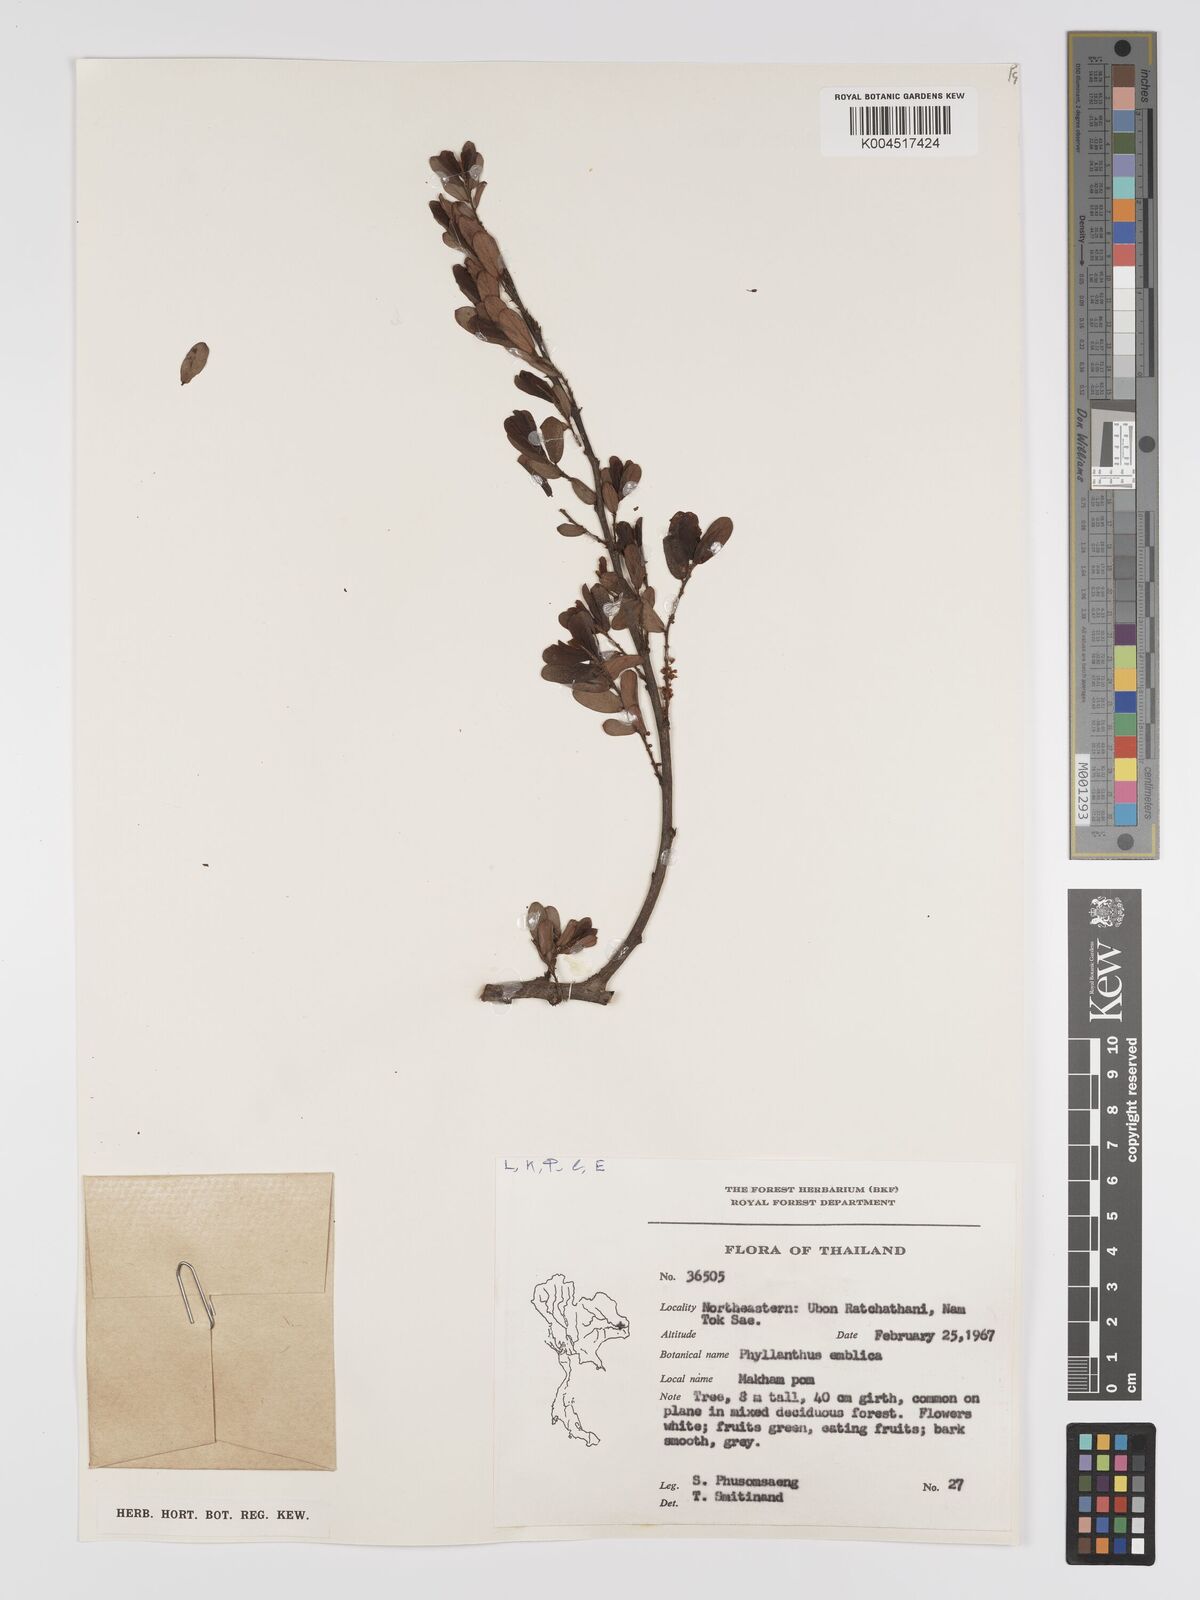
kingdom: Plantae
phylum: Tracheophyta
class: Magnoliopsida
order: Malpighiales
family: Phyllanthaceae
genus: Phyllanthus
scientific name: Phyllanthus emblica
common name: Indian gooseberry
